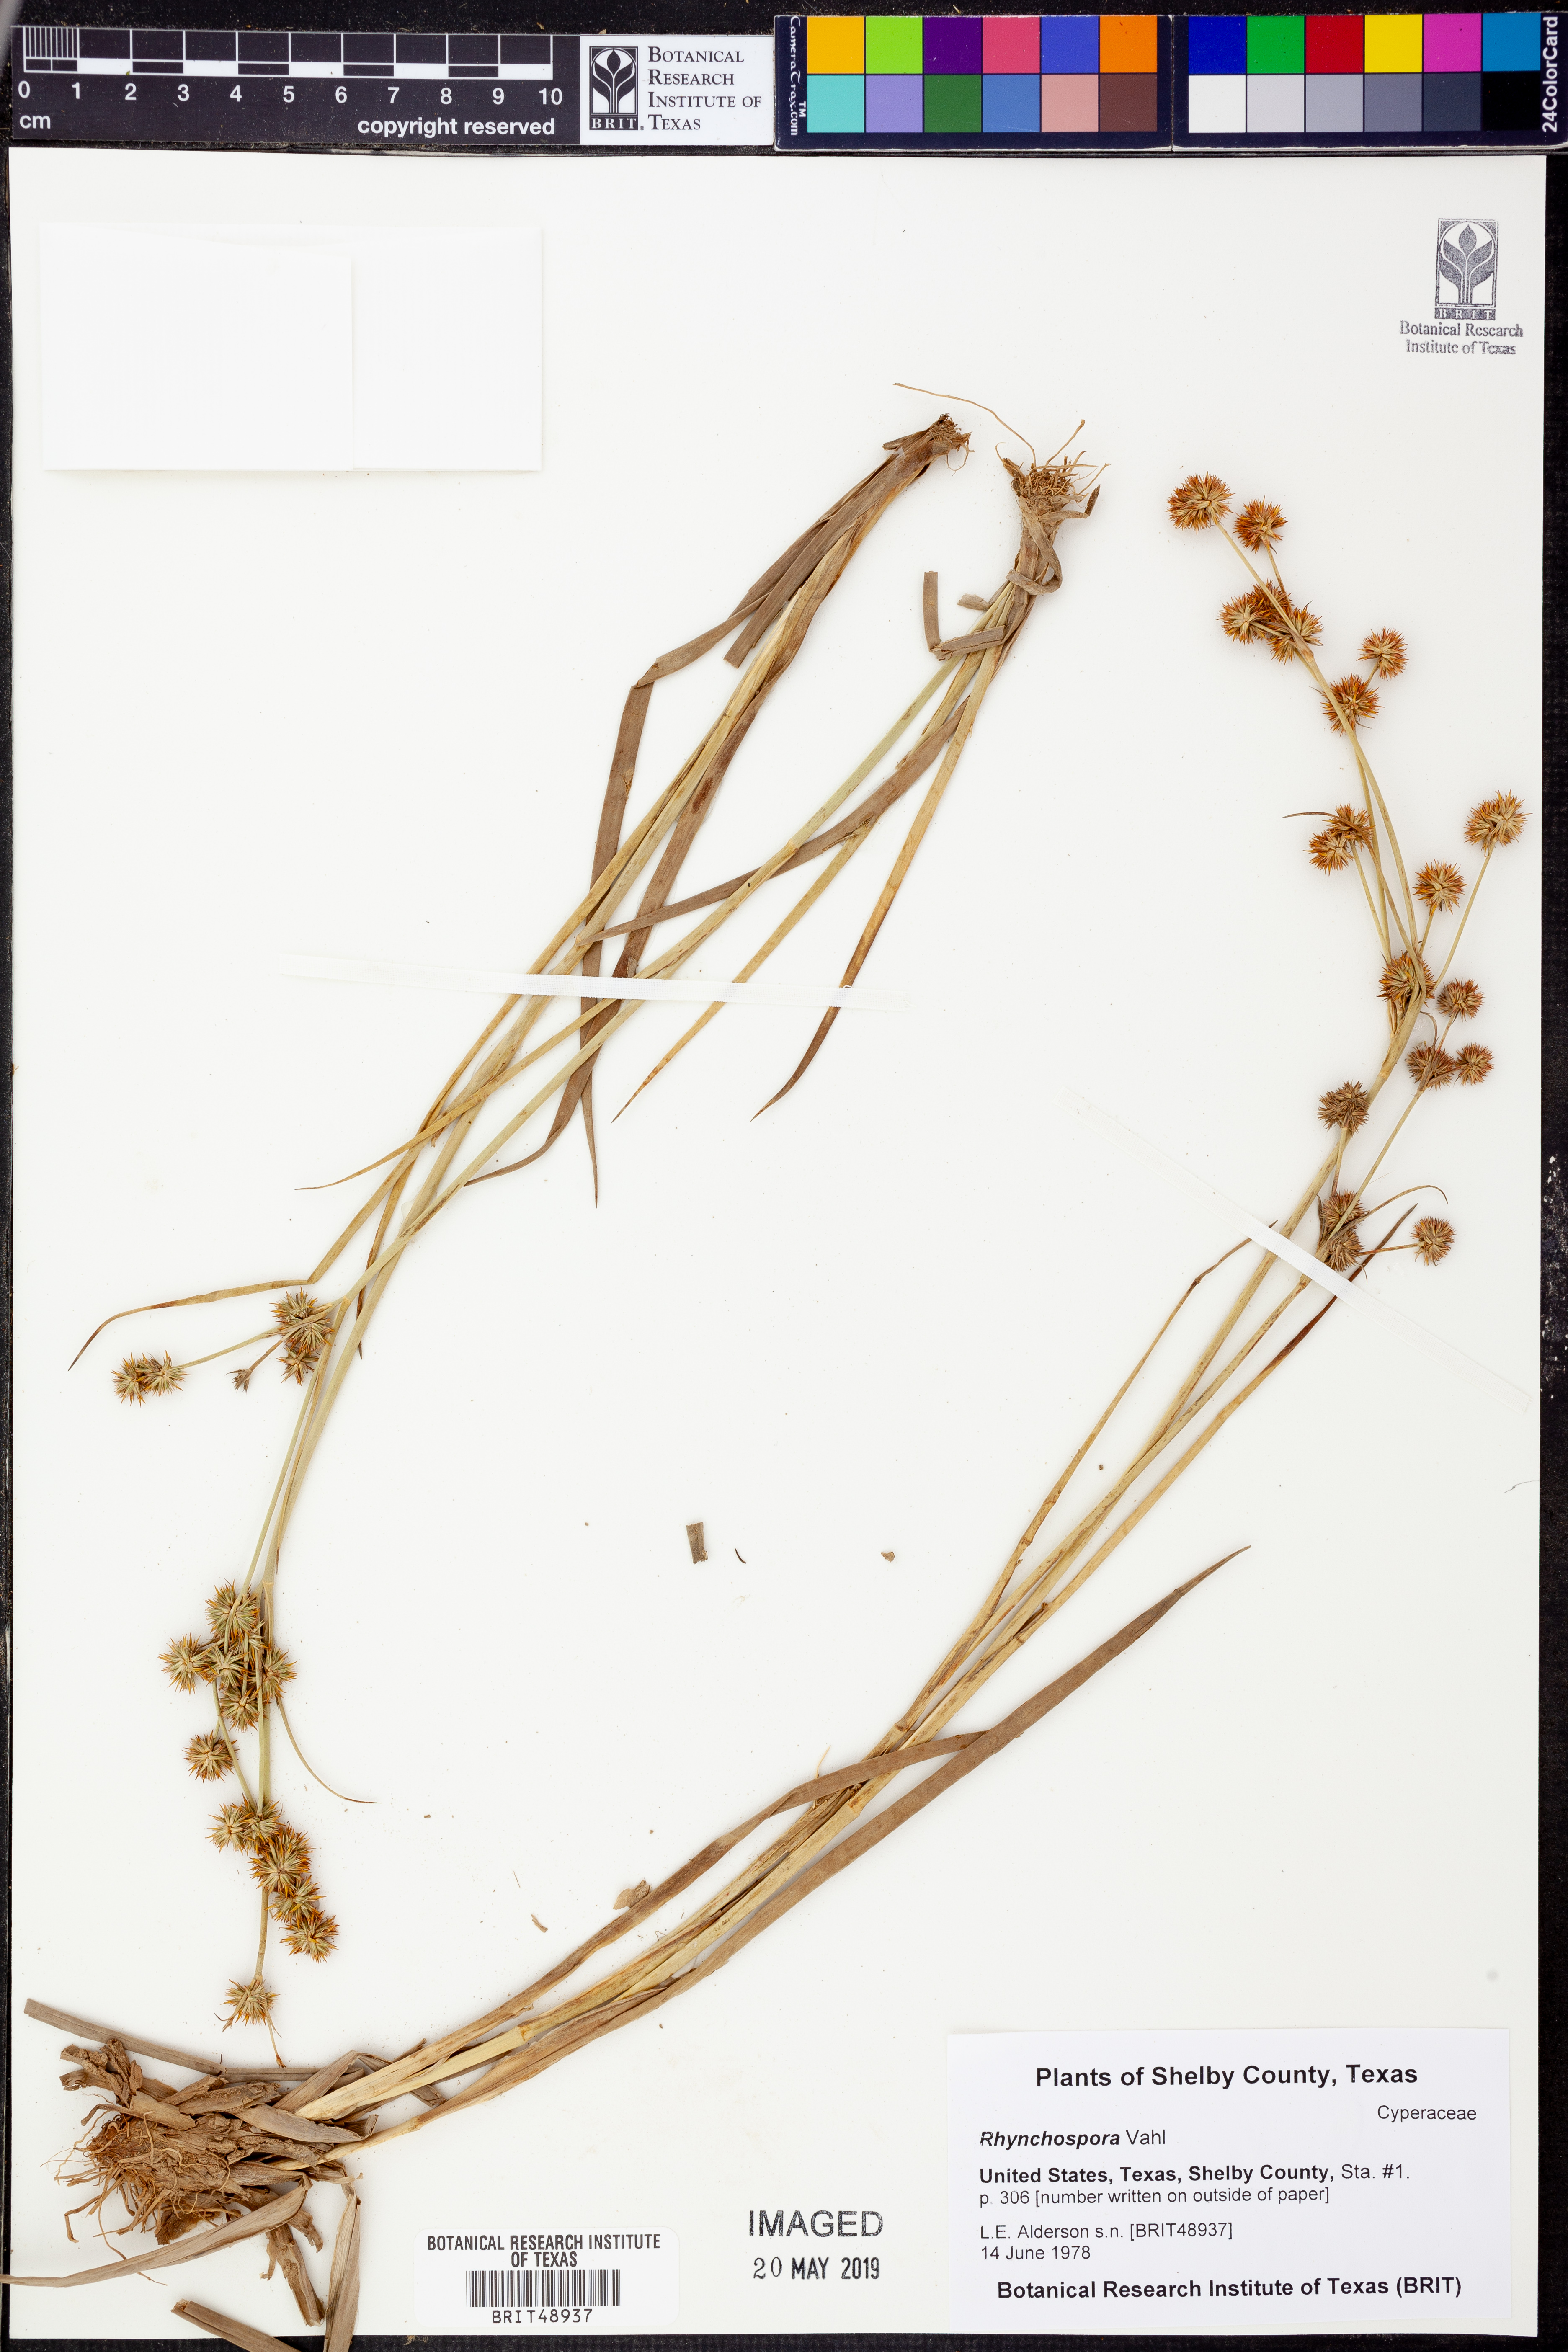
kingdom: Plantae
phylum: Tracheophyta
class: Liliopsida
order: Poales
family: Cyperaceae
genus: Rhynchospora
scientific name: Rhynchospora
